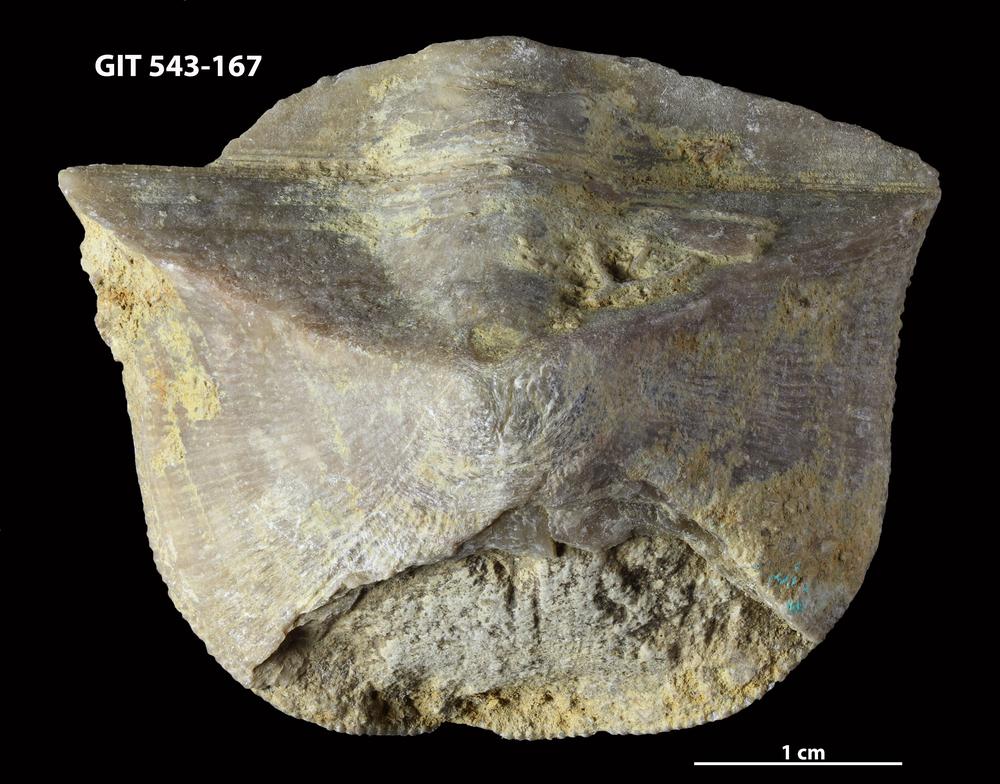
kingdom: Animalia
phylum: Brachiopoda
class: Rhynchonellata
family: Clitambonitidae
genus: Clinambon
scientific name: Clinambon anomalus
